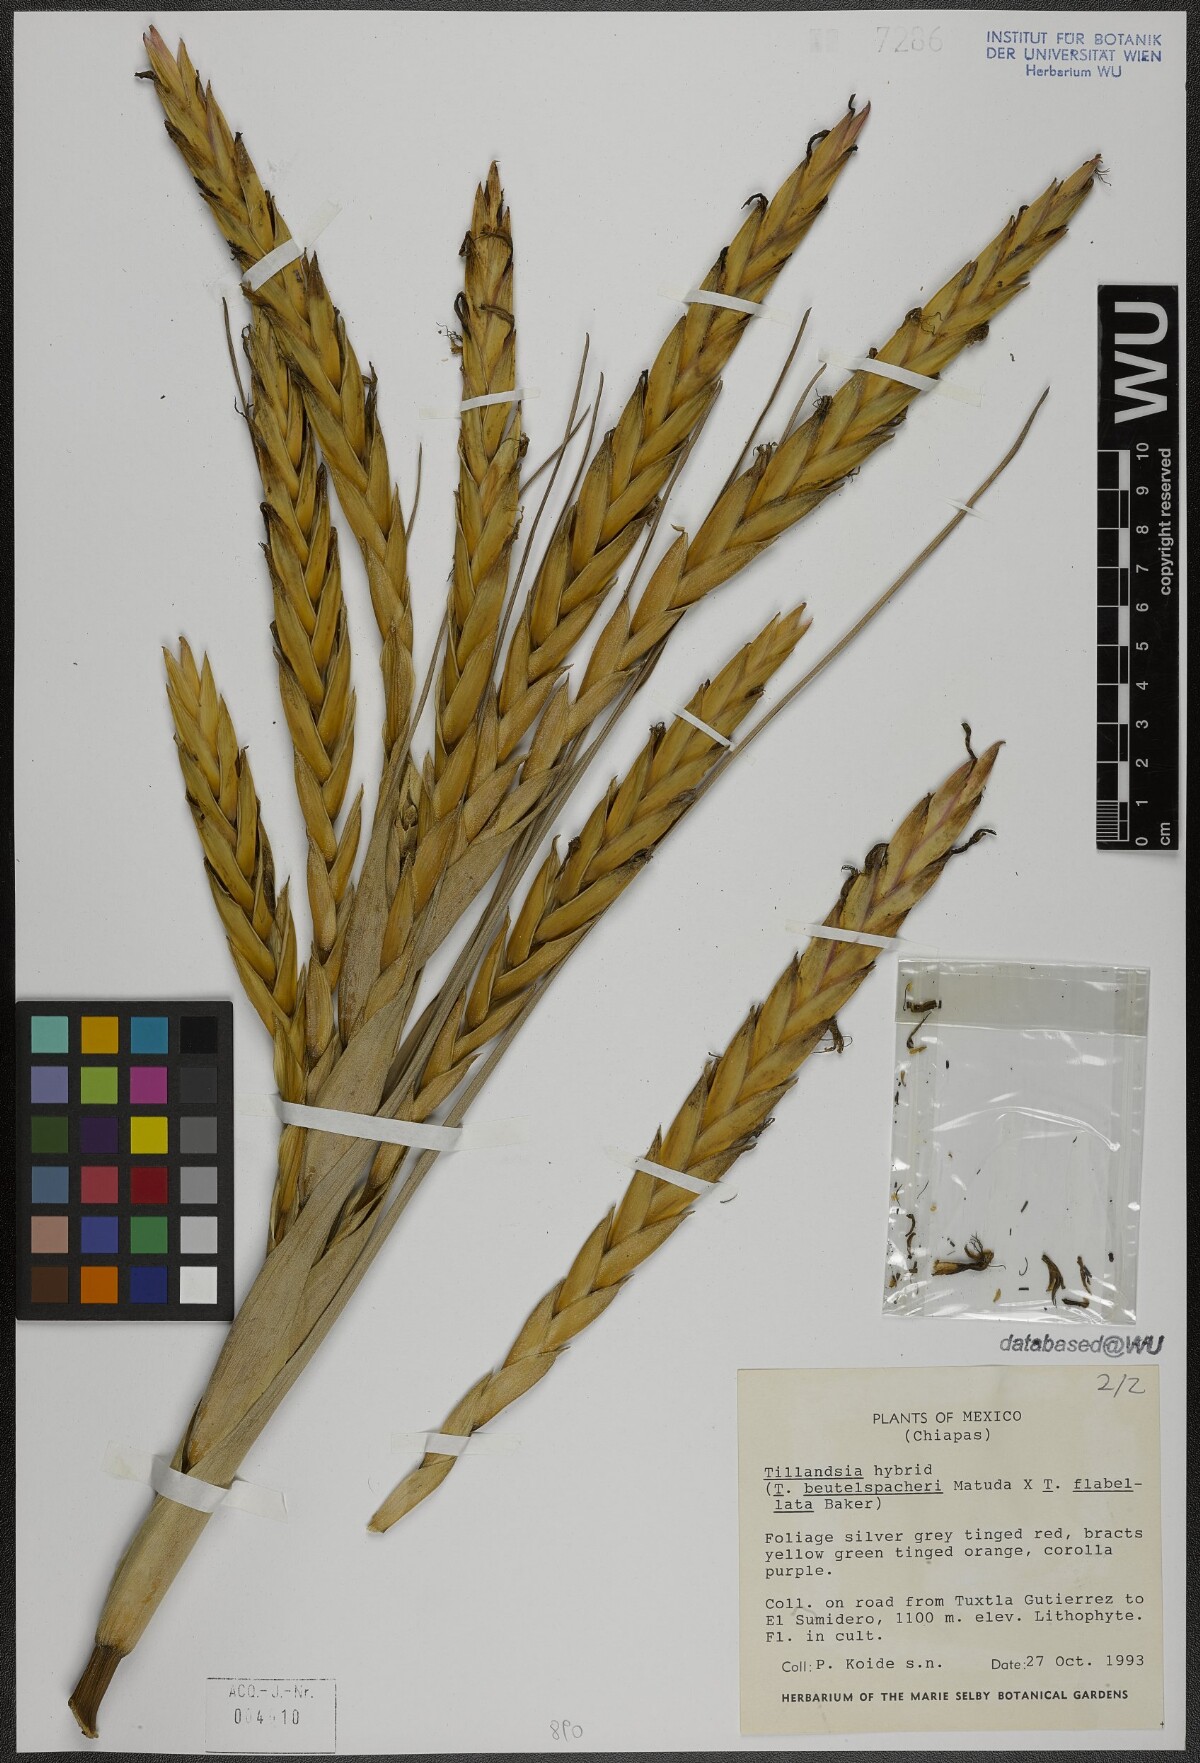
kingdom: Plantae
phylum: Tracheophyta
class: Liliopsida
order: Poales
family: Bromeliaceae
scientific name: Bromeliaceae
